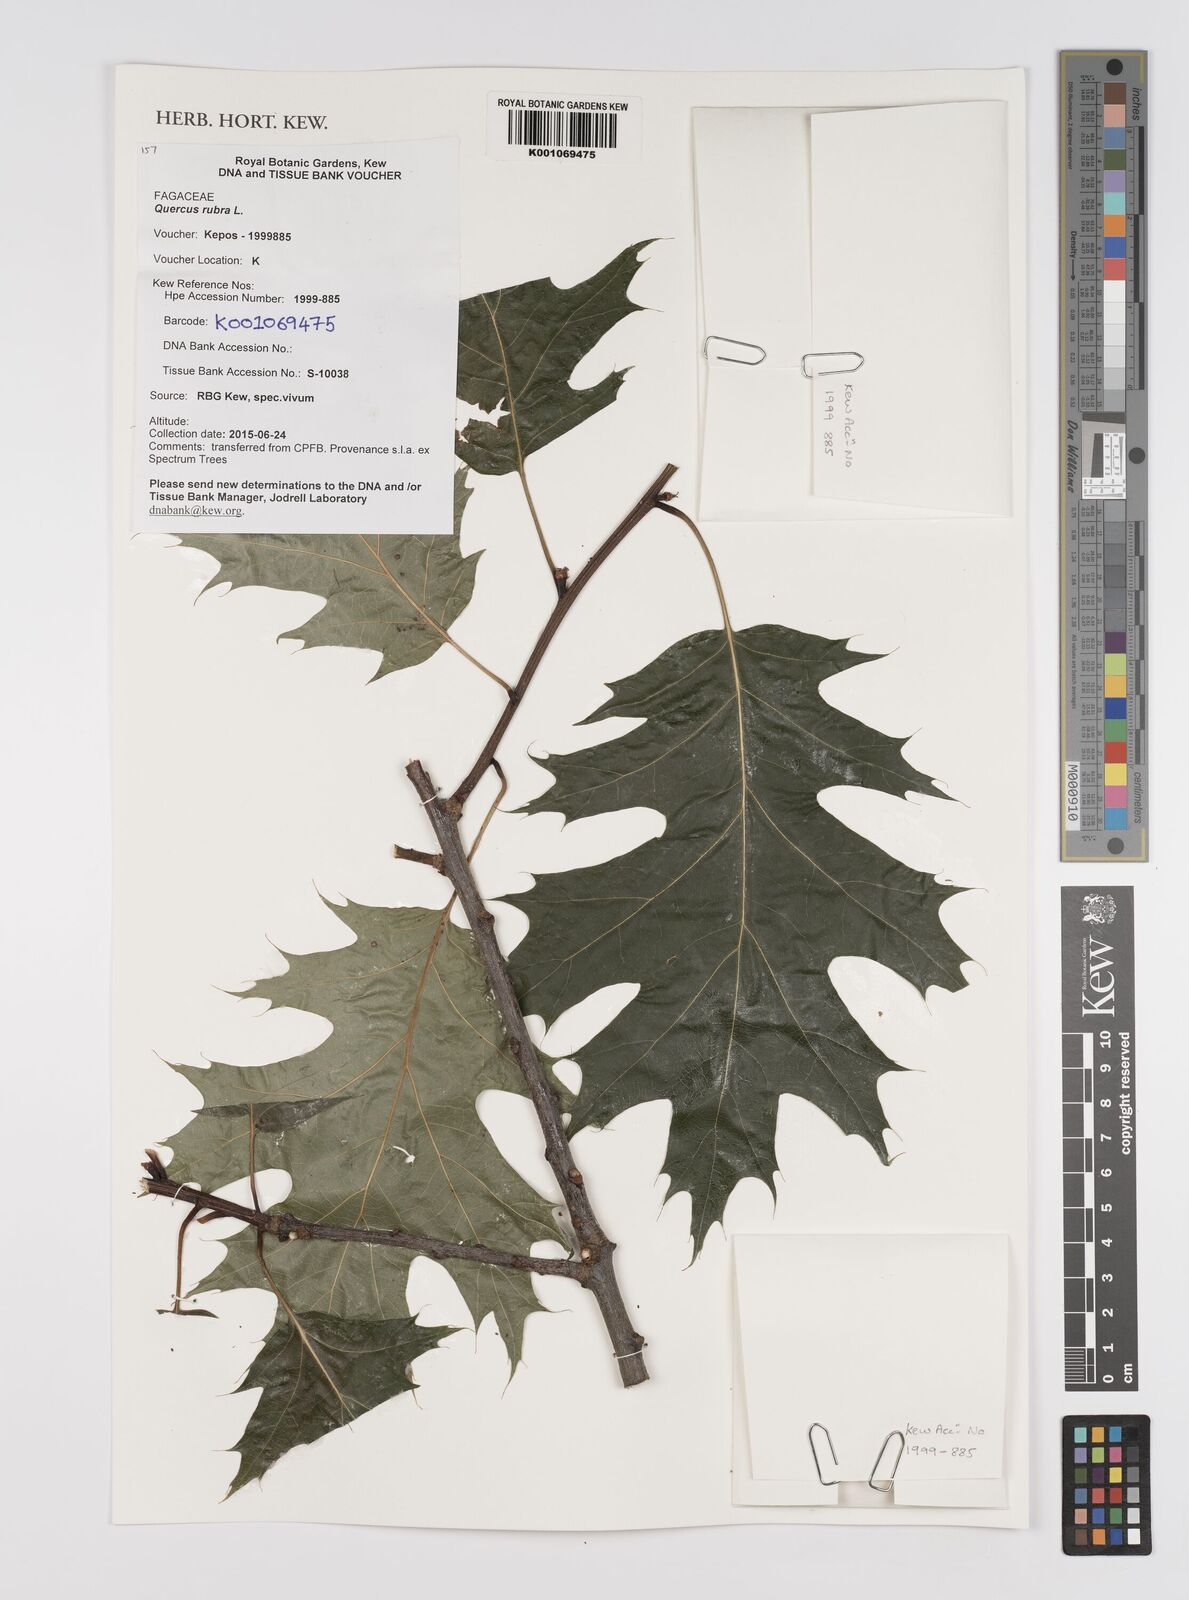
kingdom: Plantae
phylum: Tracheophyta
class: Magnoliopsida
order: Fagales
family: Fagaceae
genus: Quercus
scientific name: Quercus rubra
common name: Red oak
